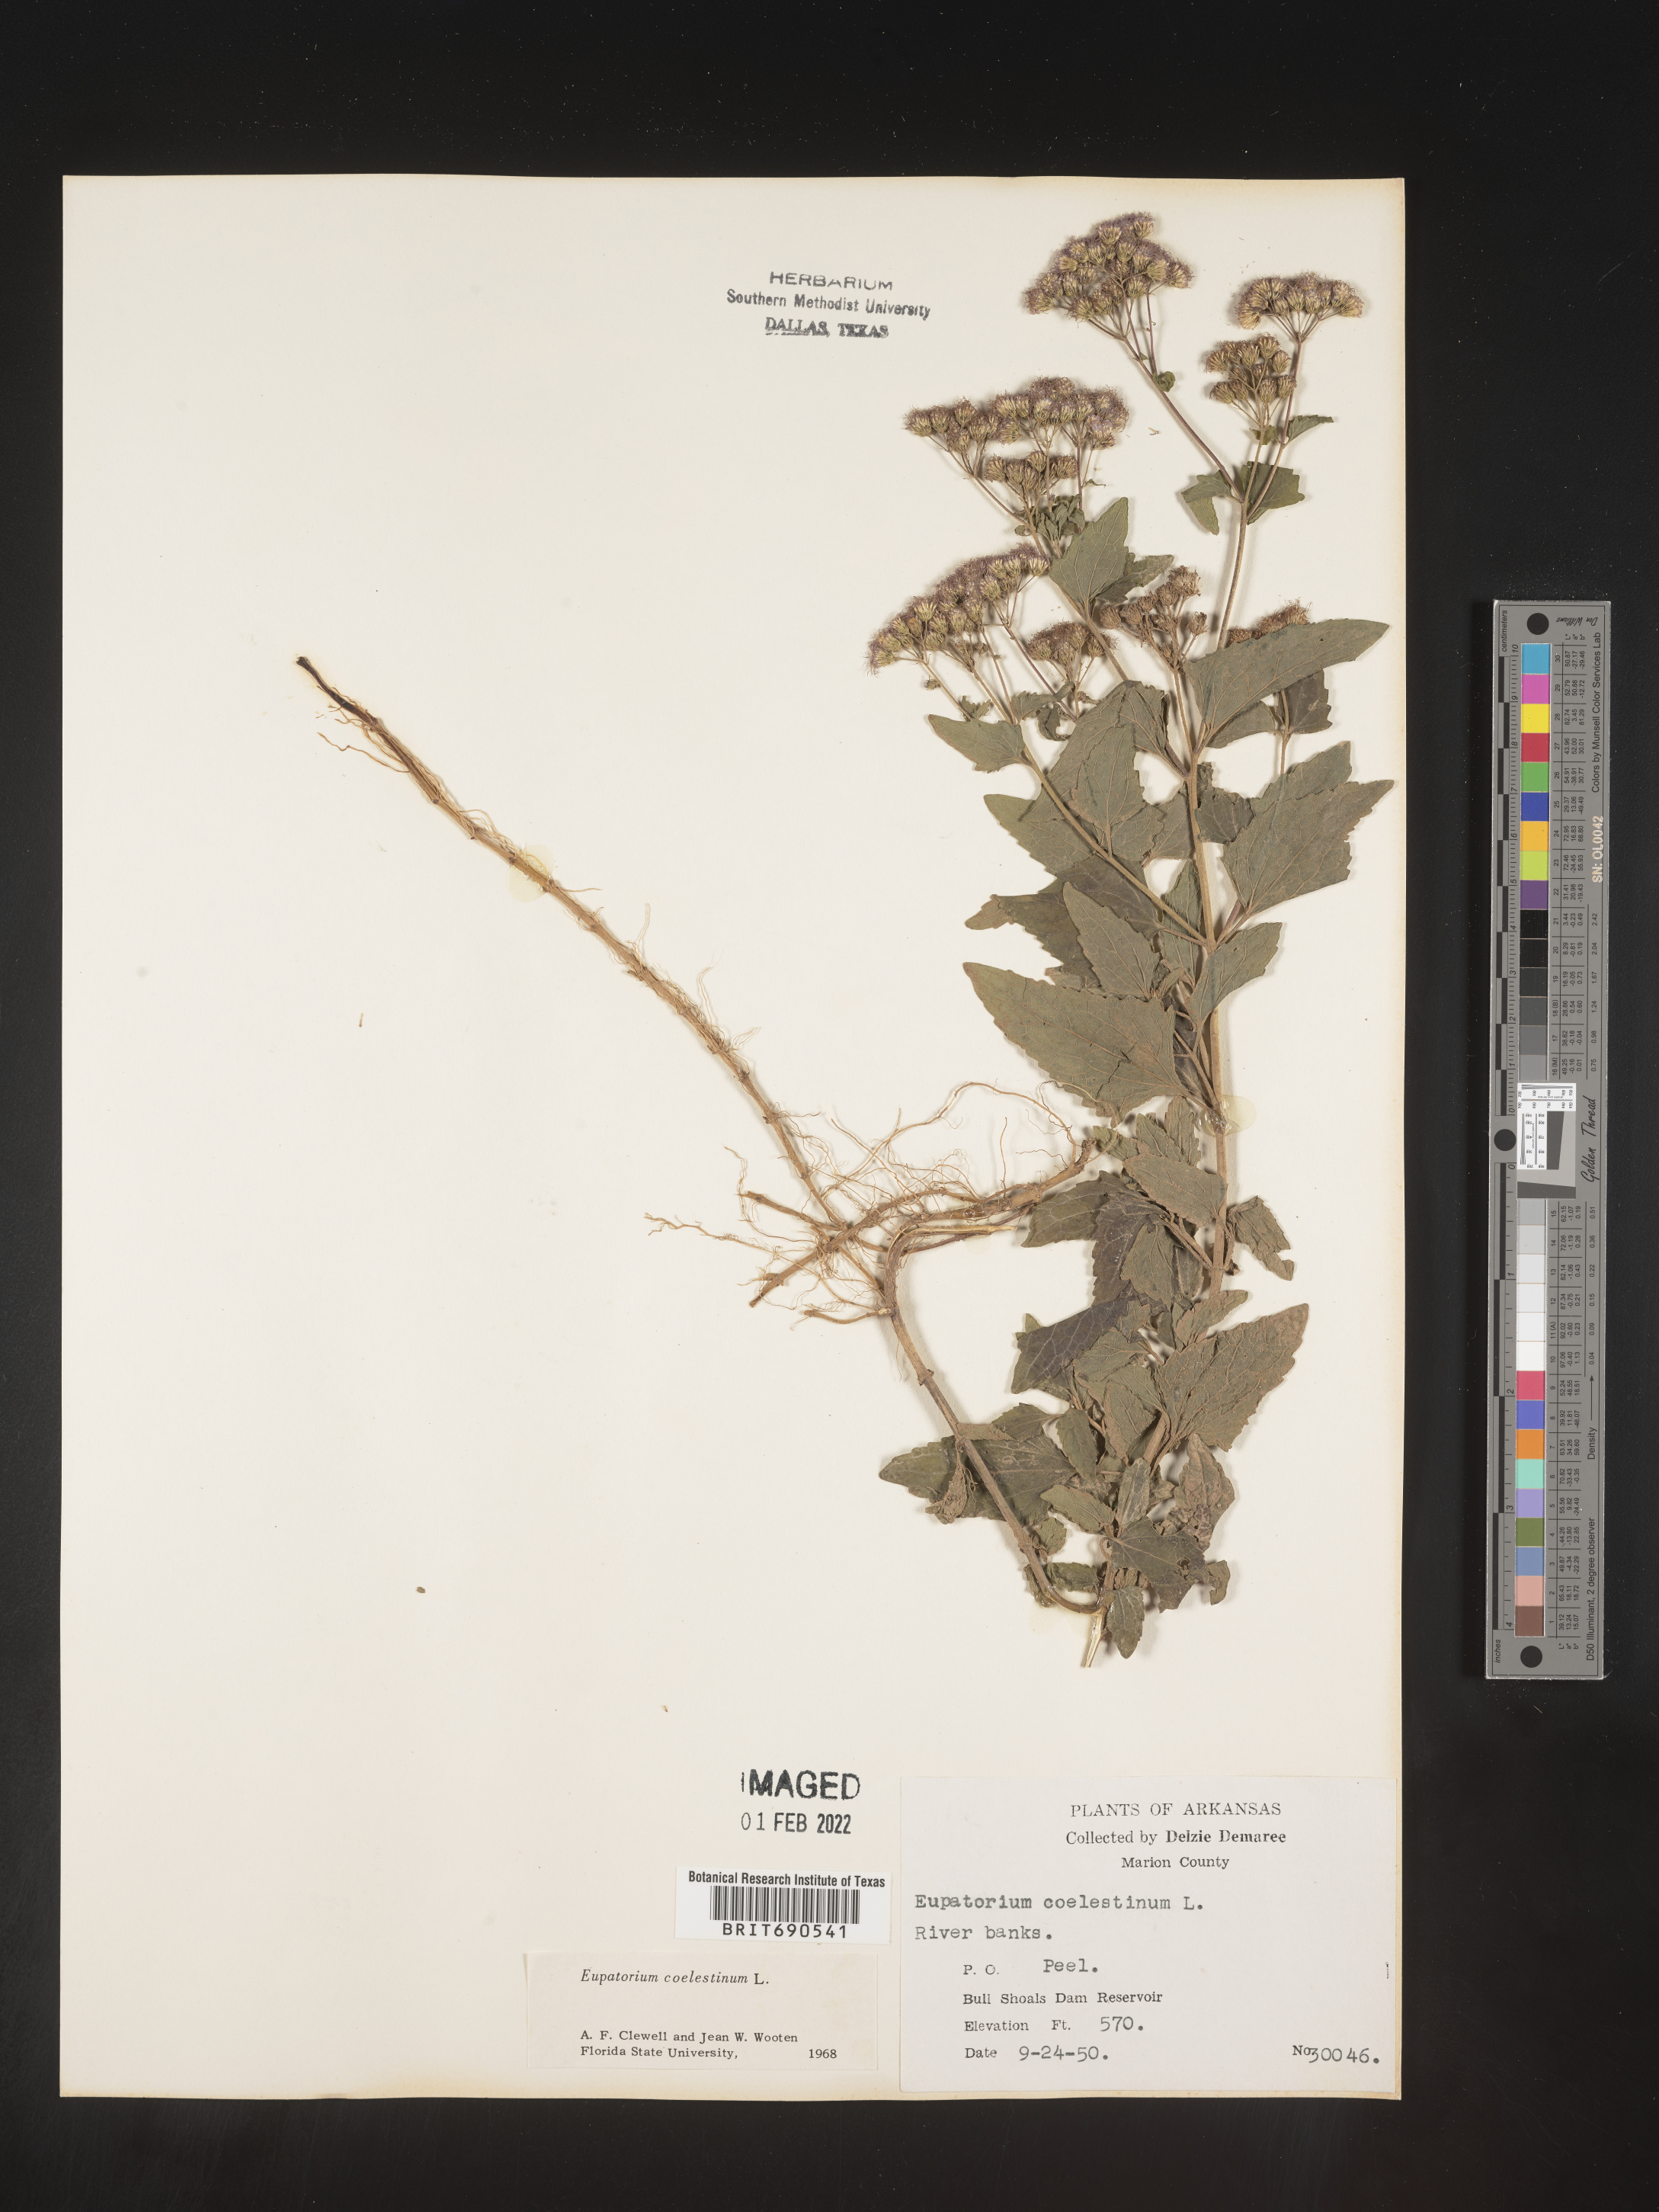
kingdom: Plantae
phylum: Tracheophyta
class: Magnoliopsida
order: Asterales
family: Asteraceae
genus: Conoclinium
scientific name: Conoclinium coelestinum
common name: Blue mistflower
